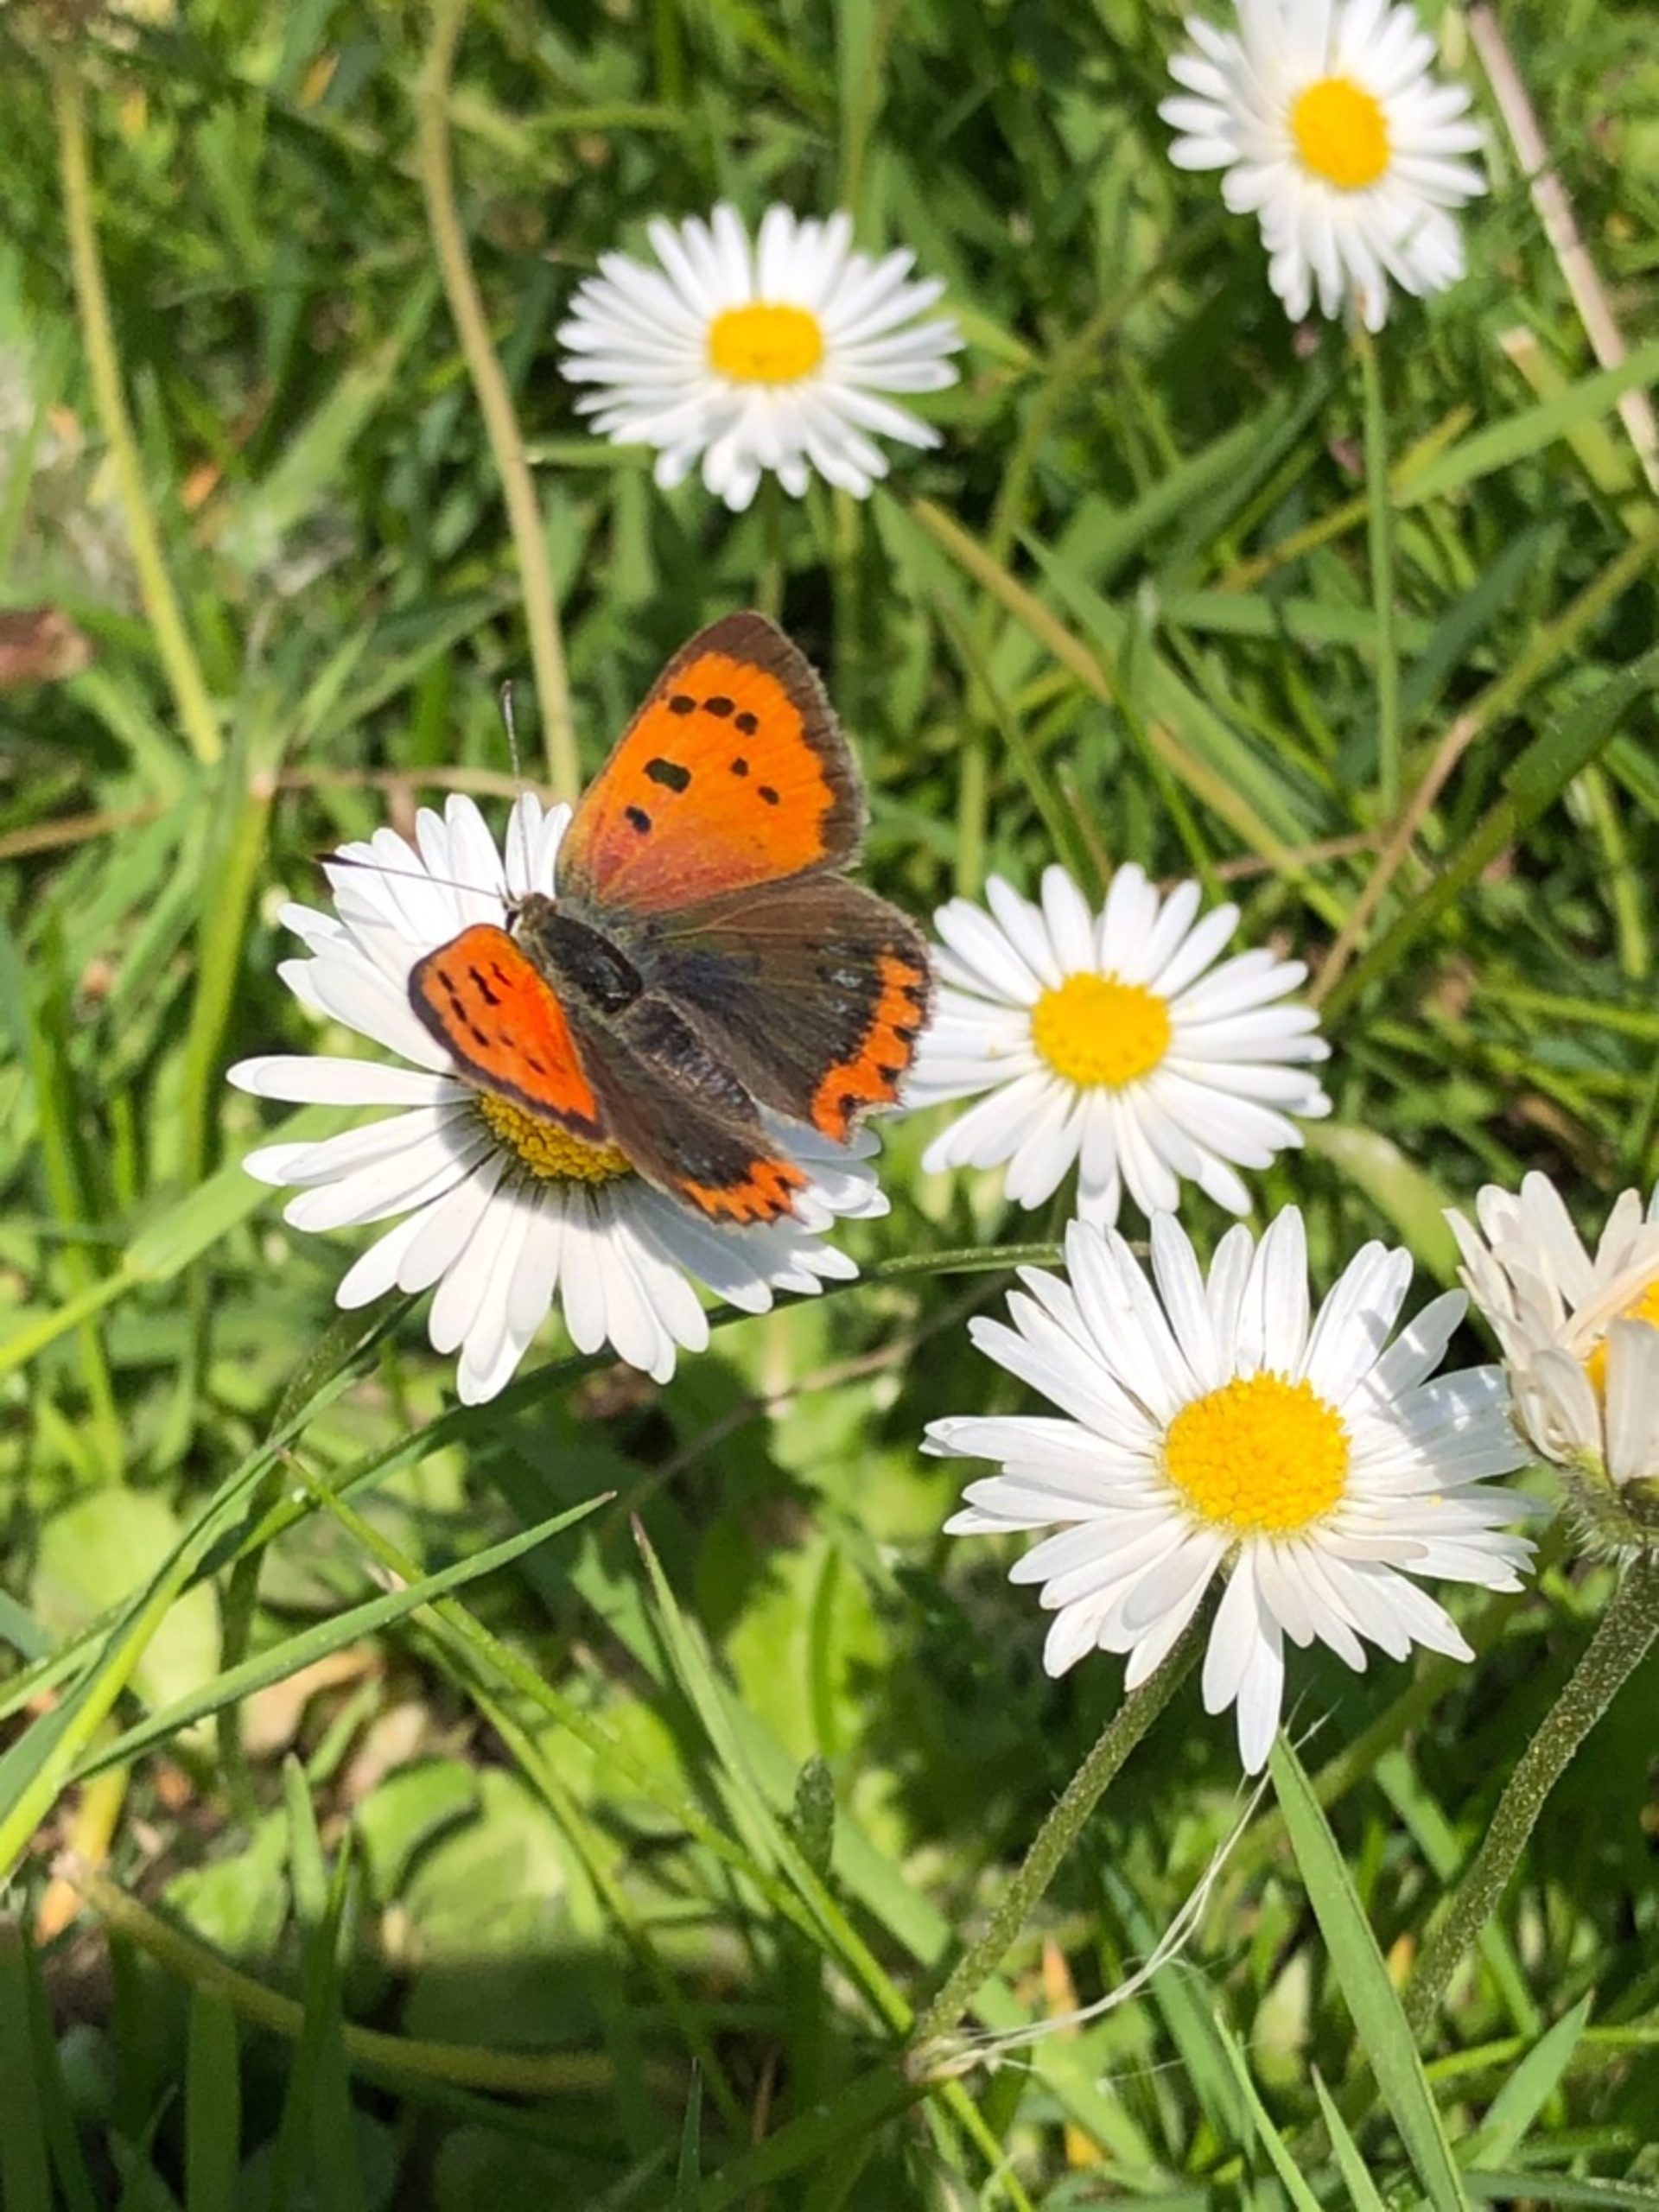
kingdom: Animalia
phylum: Arthropoda
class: Insecta
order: Lepidoptera
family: Lycaenidae
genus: Lycaena
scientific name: Lycaena phlaeas
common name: Lille ildfugl
